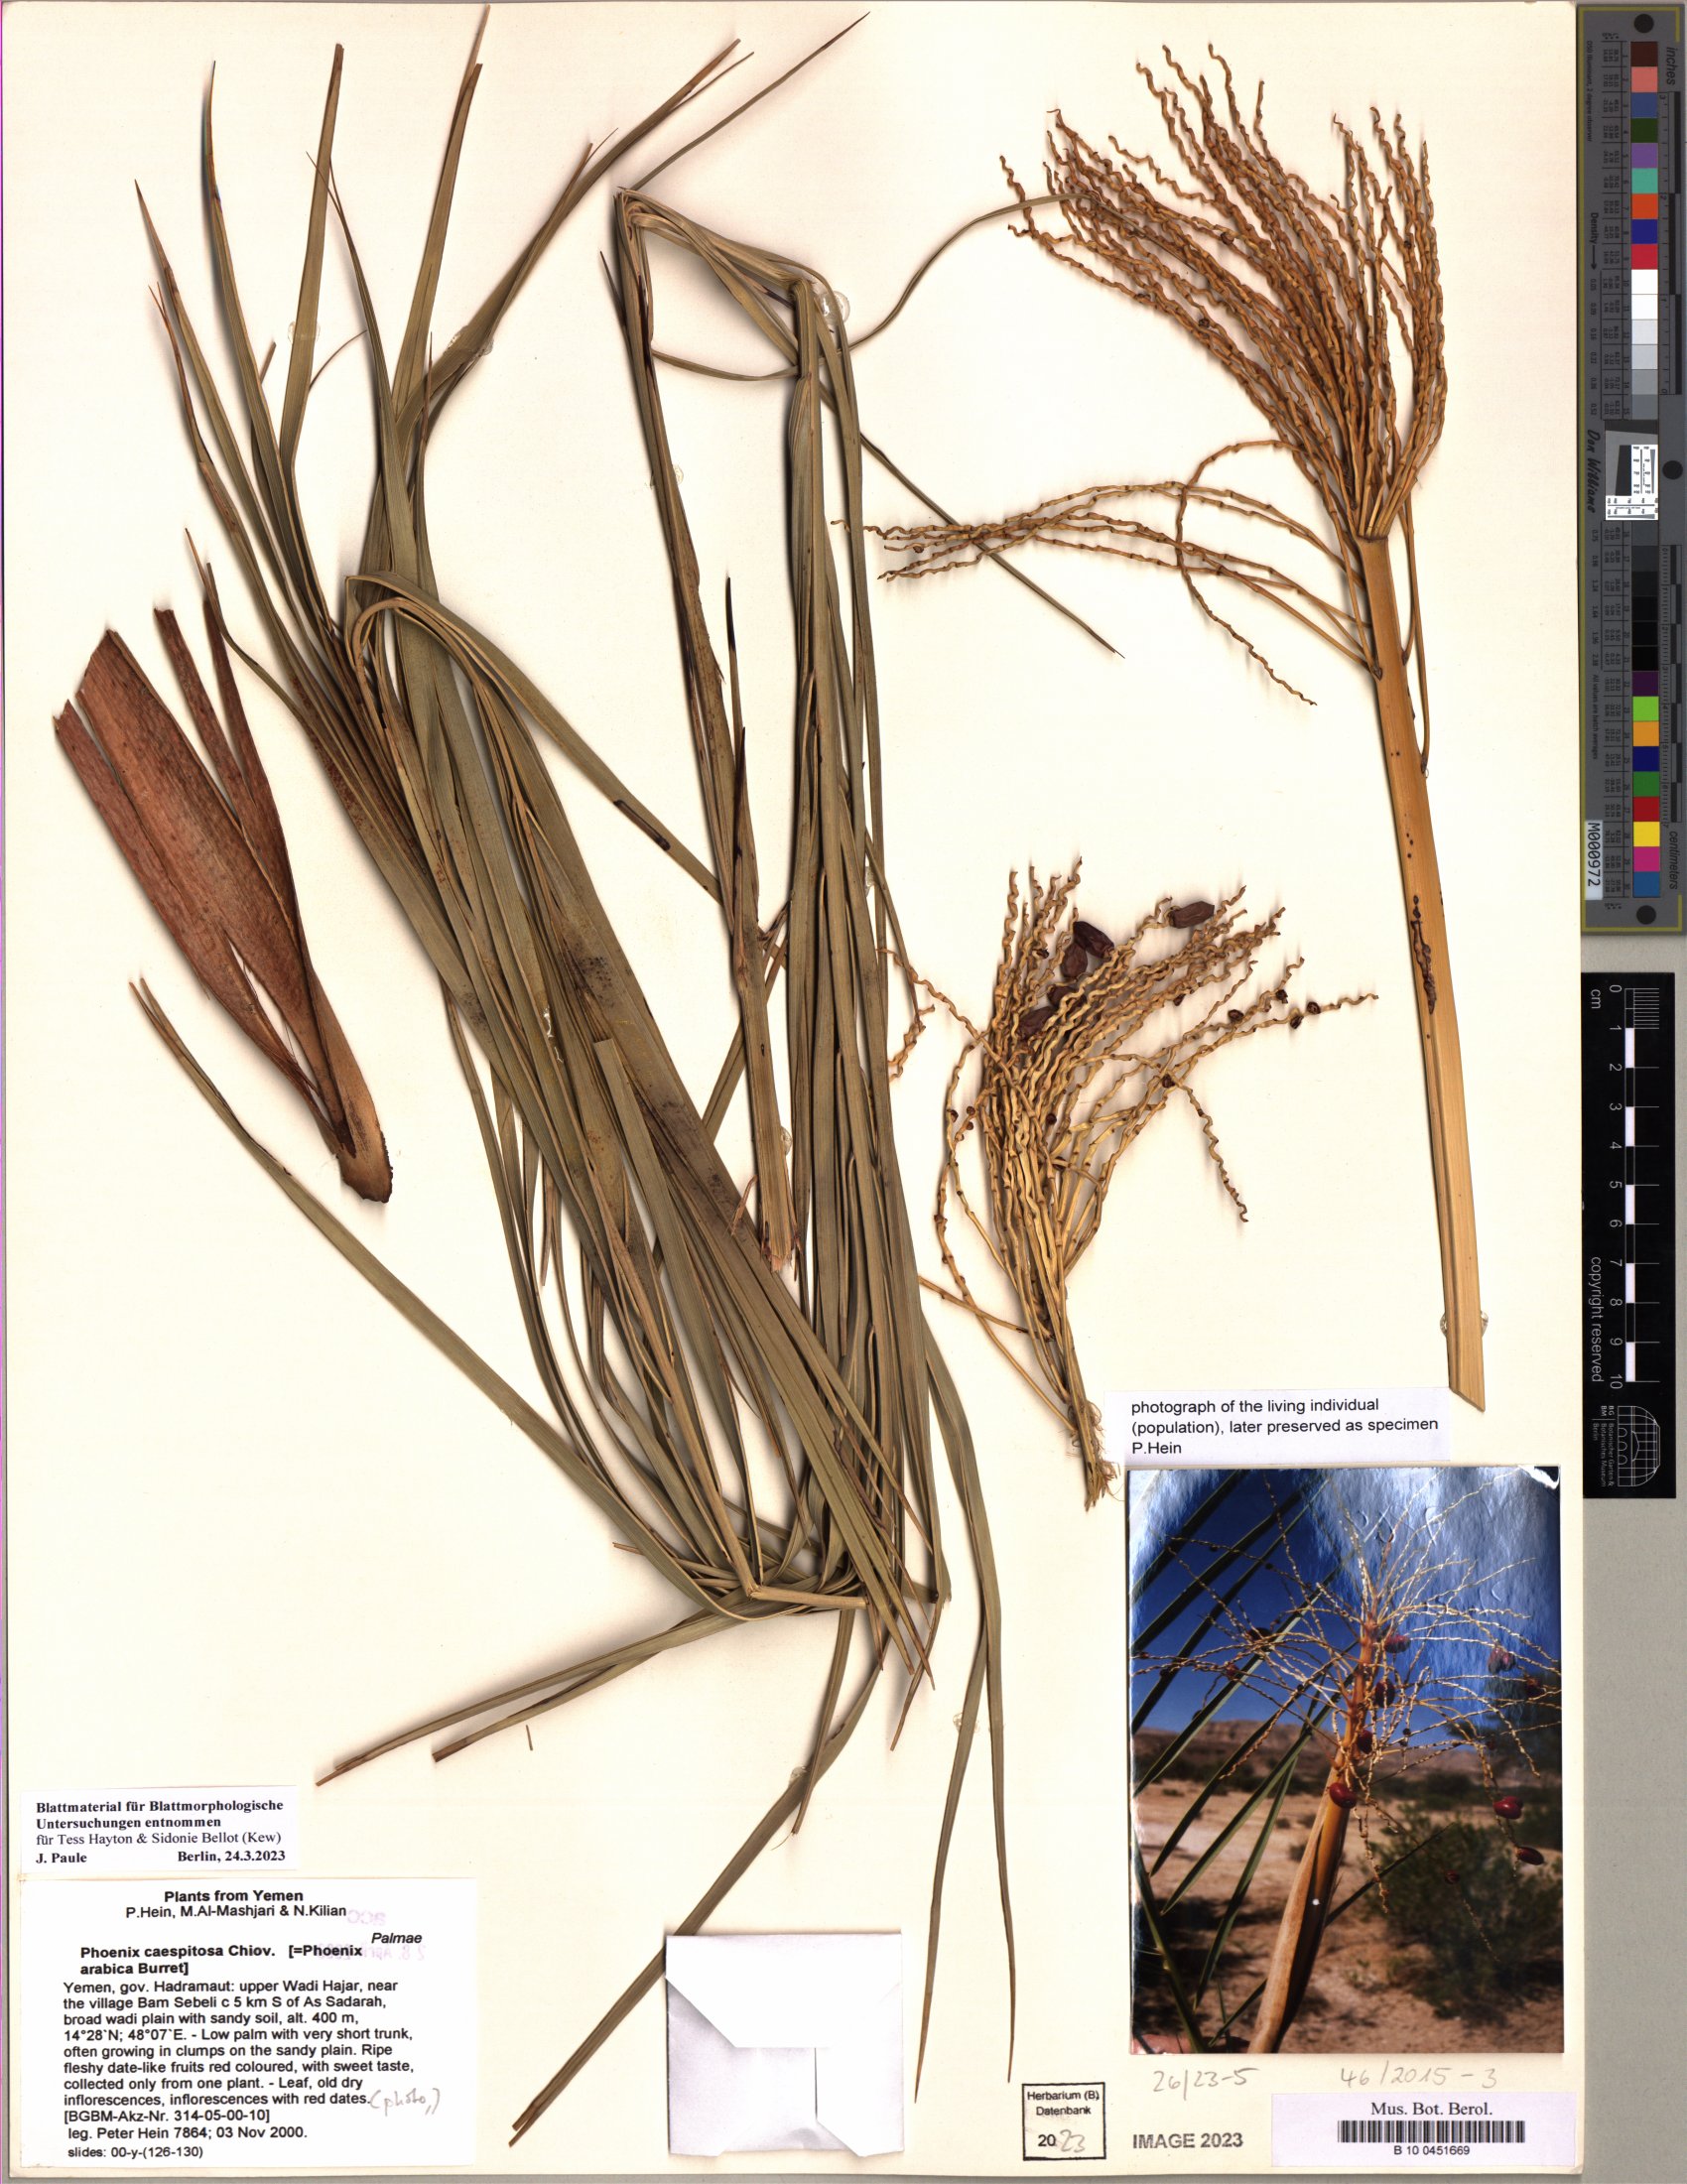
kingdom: Plantae
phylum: Tracheophyta
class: Liliopsida
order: Arecales
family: Arecaceae
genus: Phoenix
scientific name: Phoenix caespitosa
